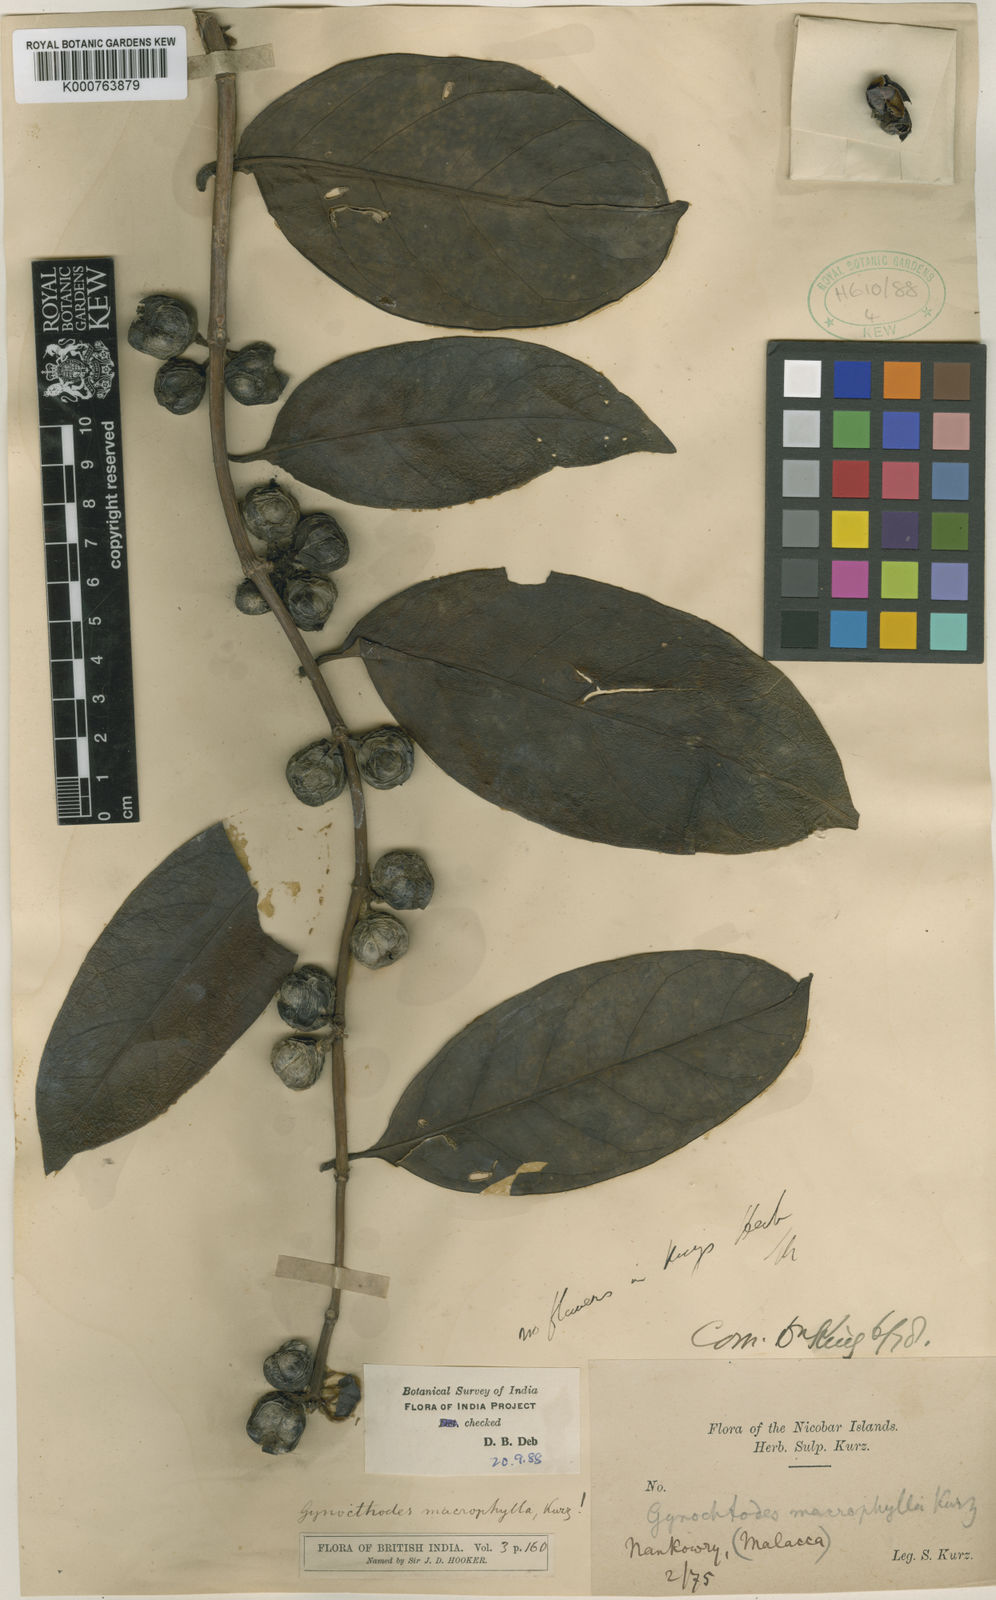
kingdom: Plantae
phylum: Tracheophyta
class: Magnoliopsida
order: Gentianales
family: Rubiaceae
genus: Gynochthodes
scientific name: Gynochthodes macrophylla
